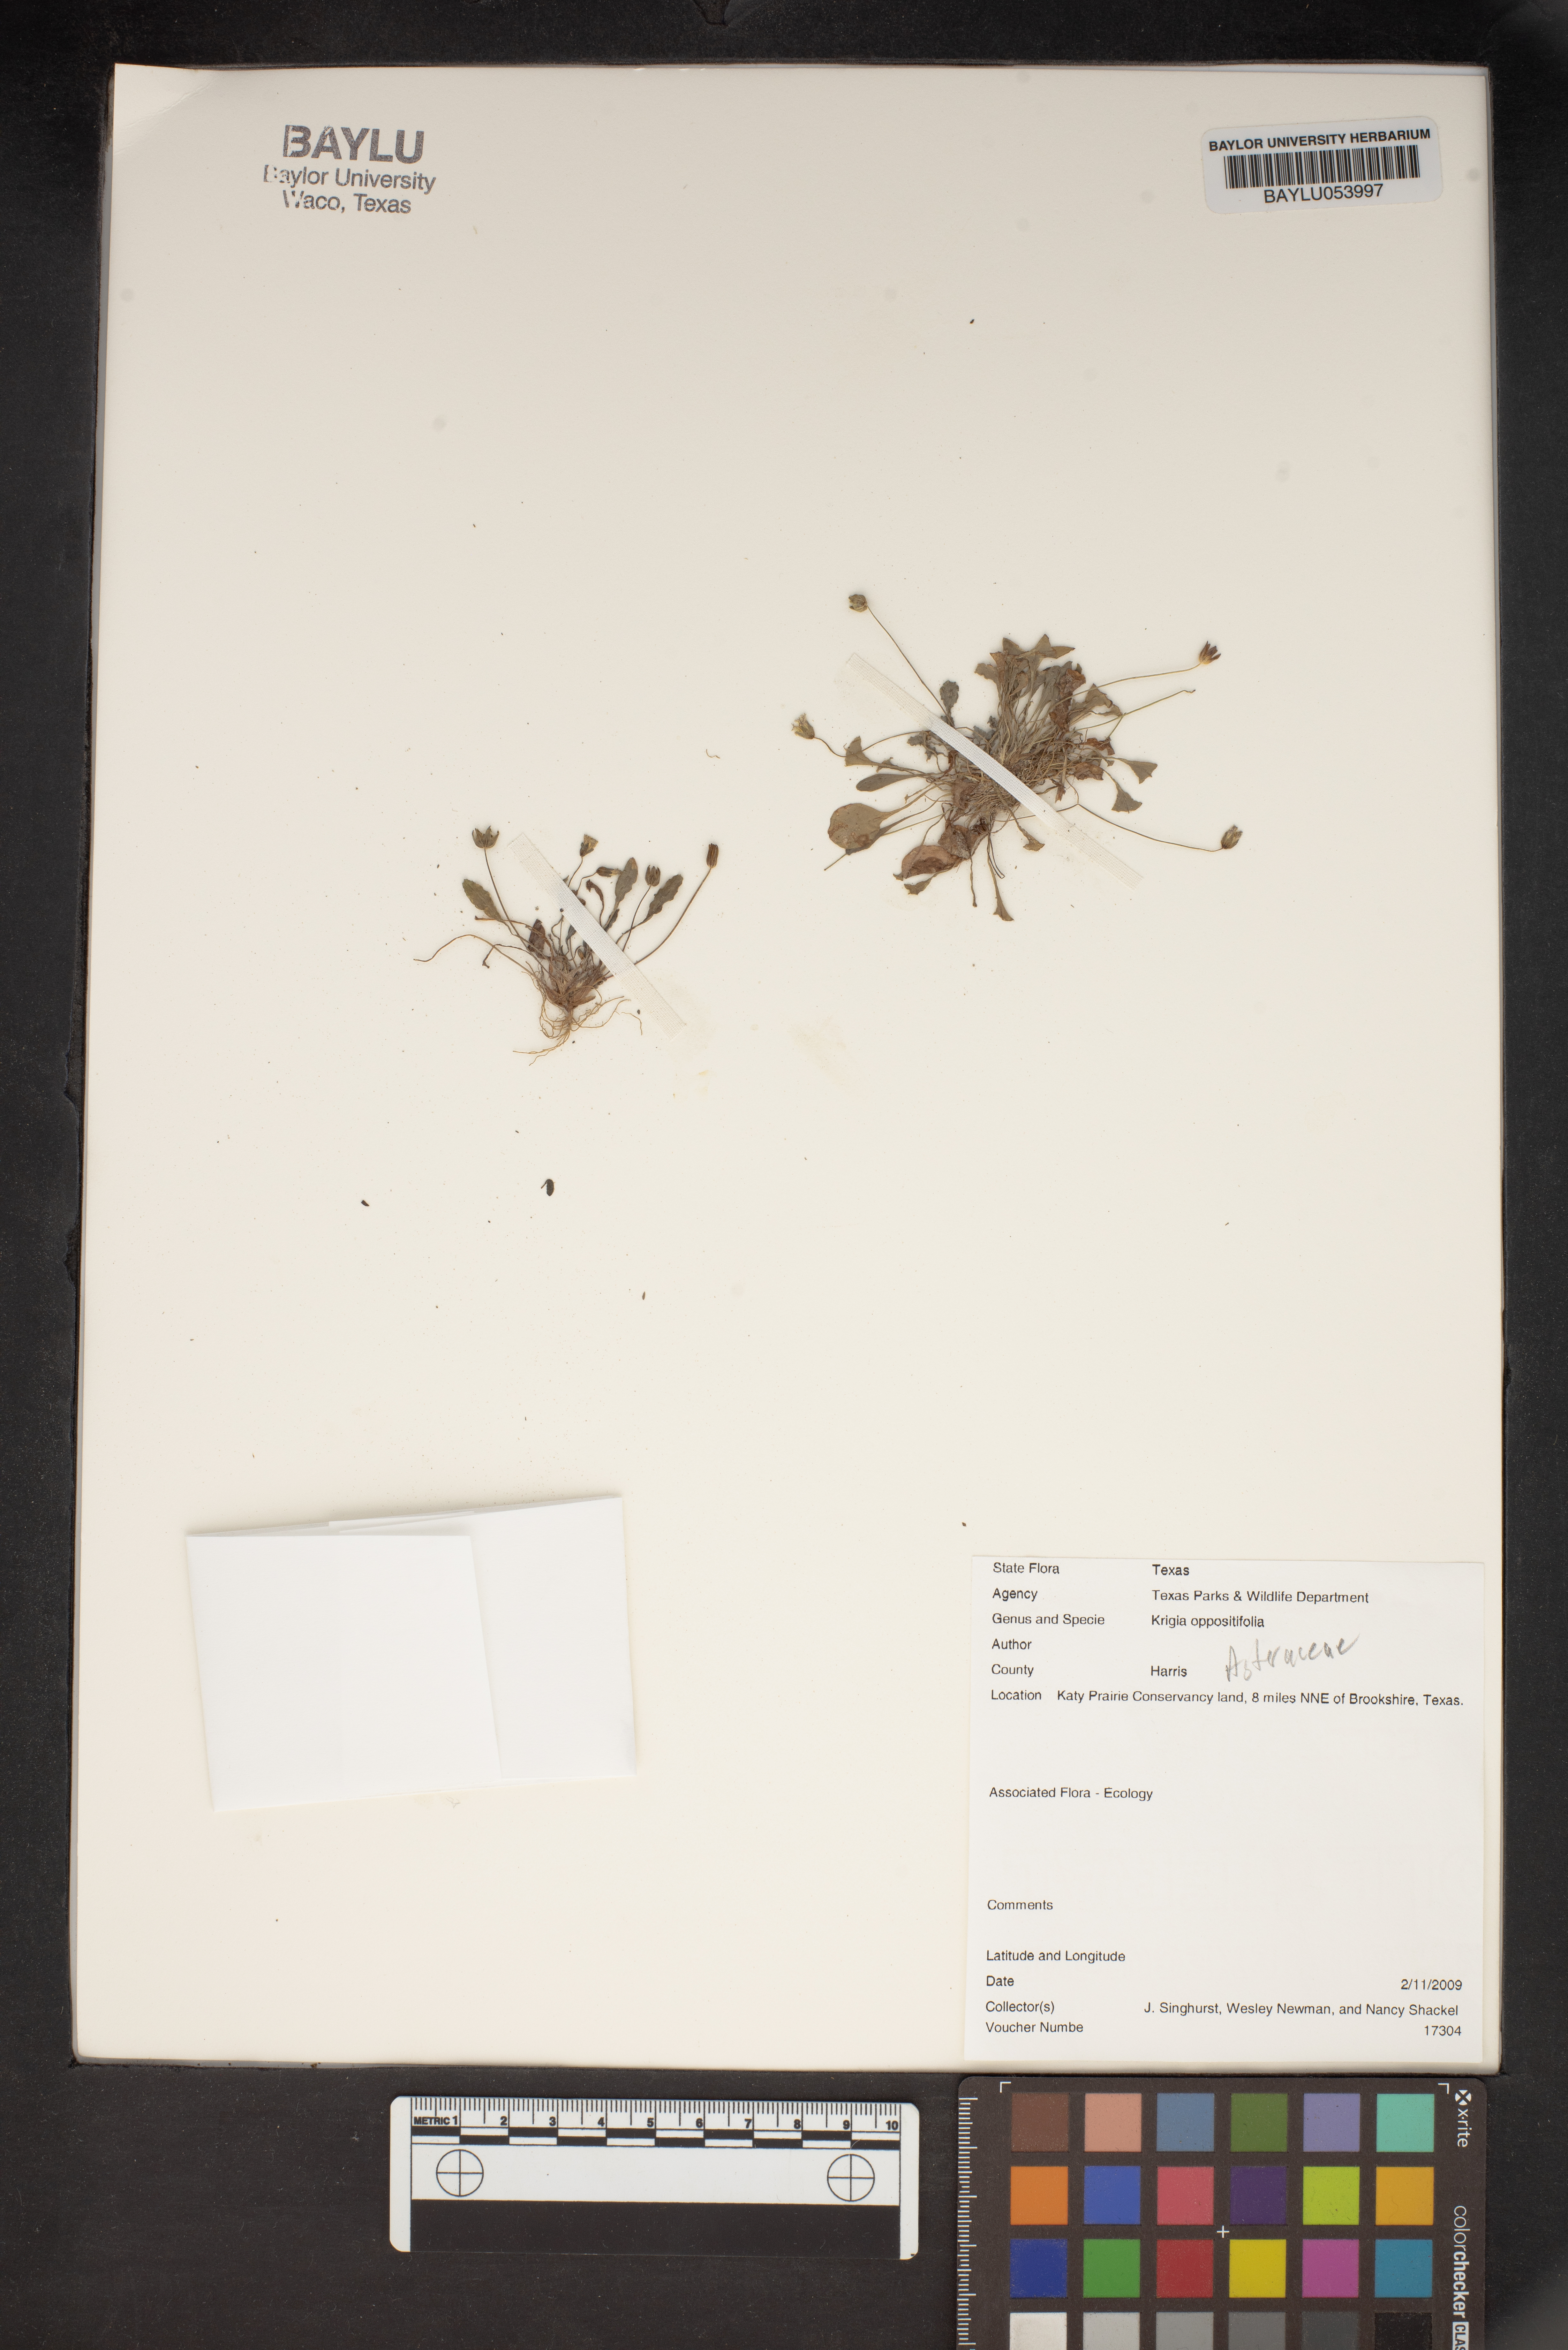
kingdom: Plantae
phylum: Tracheophyta
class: Magnoliopsida
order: Asterales
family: Asteraceae
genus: Krigia
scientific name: Krigia cespitosa
